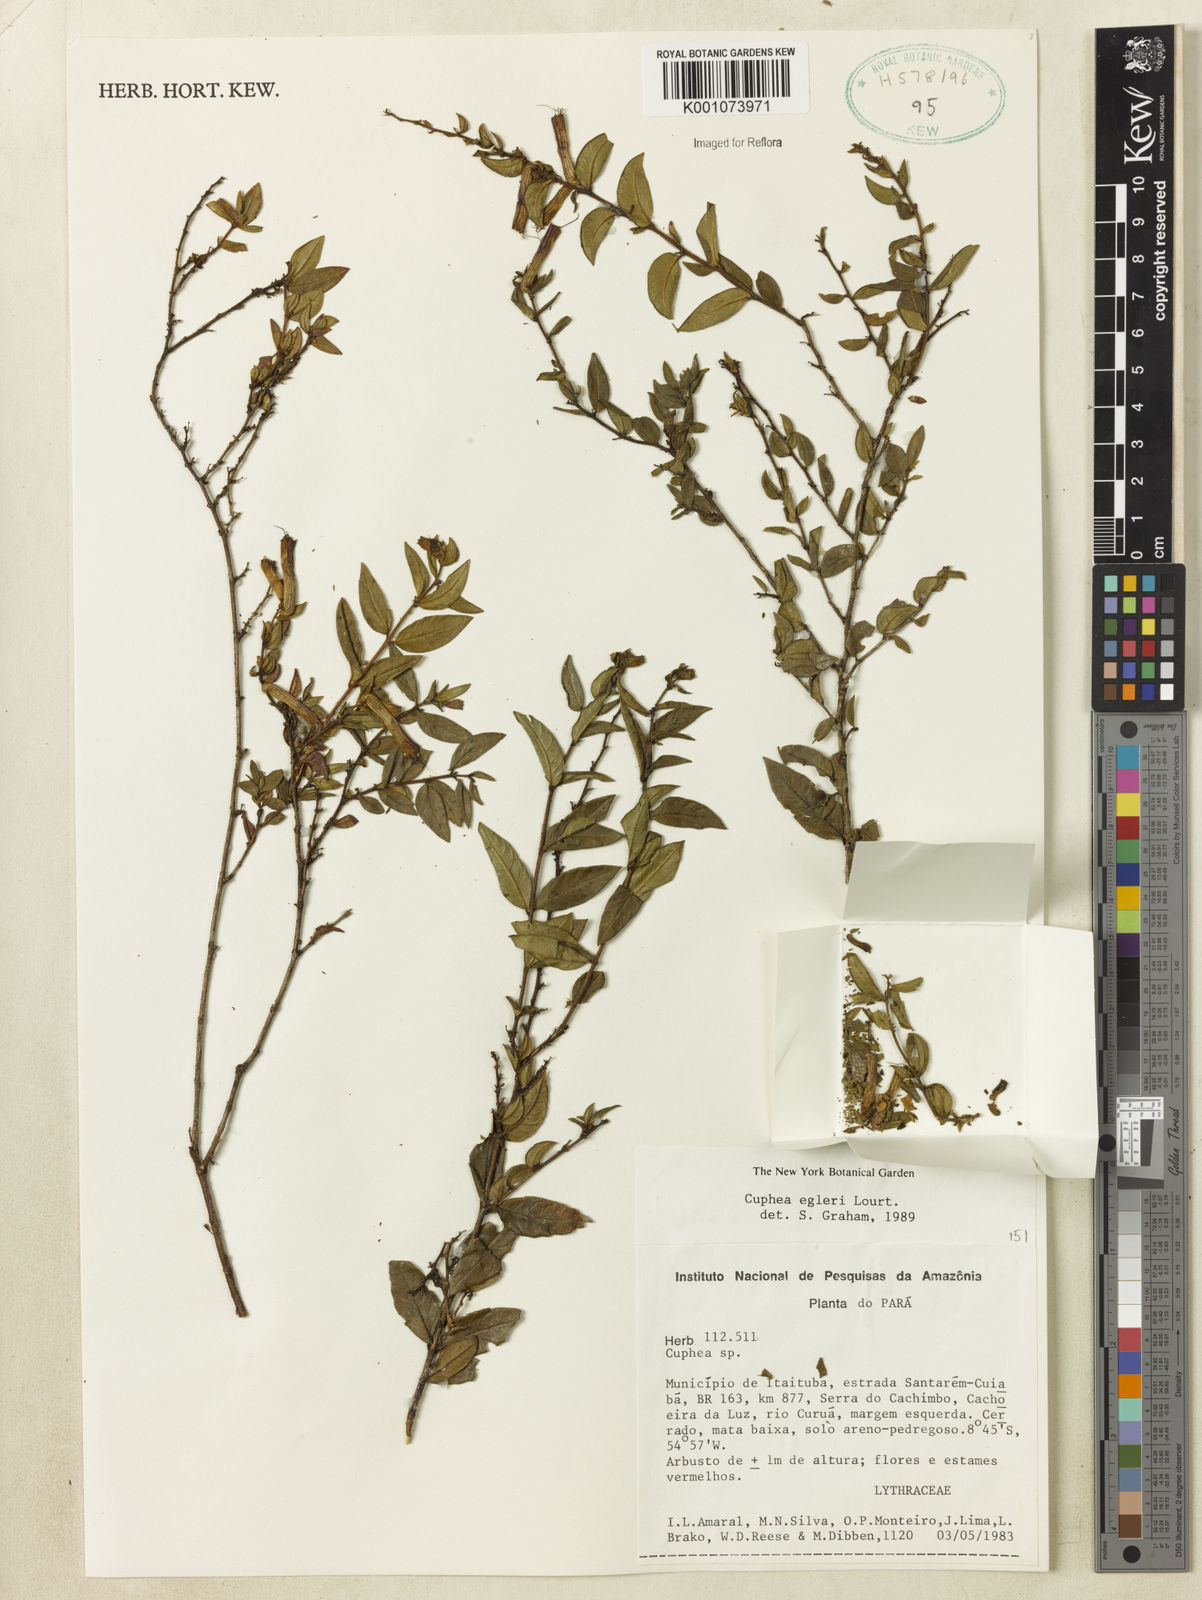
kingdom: Plantae
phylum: Tracheophyta
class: Magnoliopsida
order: Myrtales
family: Lythraceae
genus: Cuphea
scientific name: Cuphea egleri
